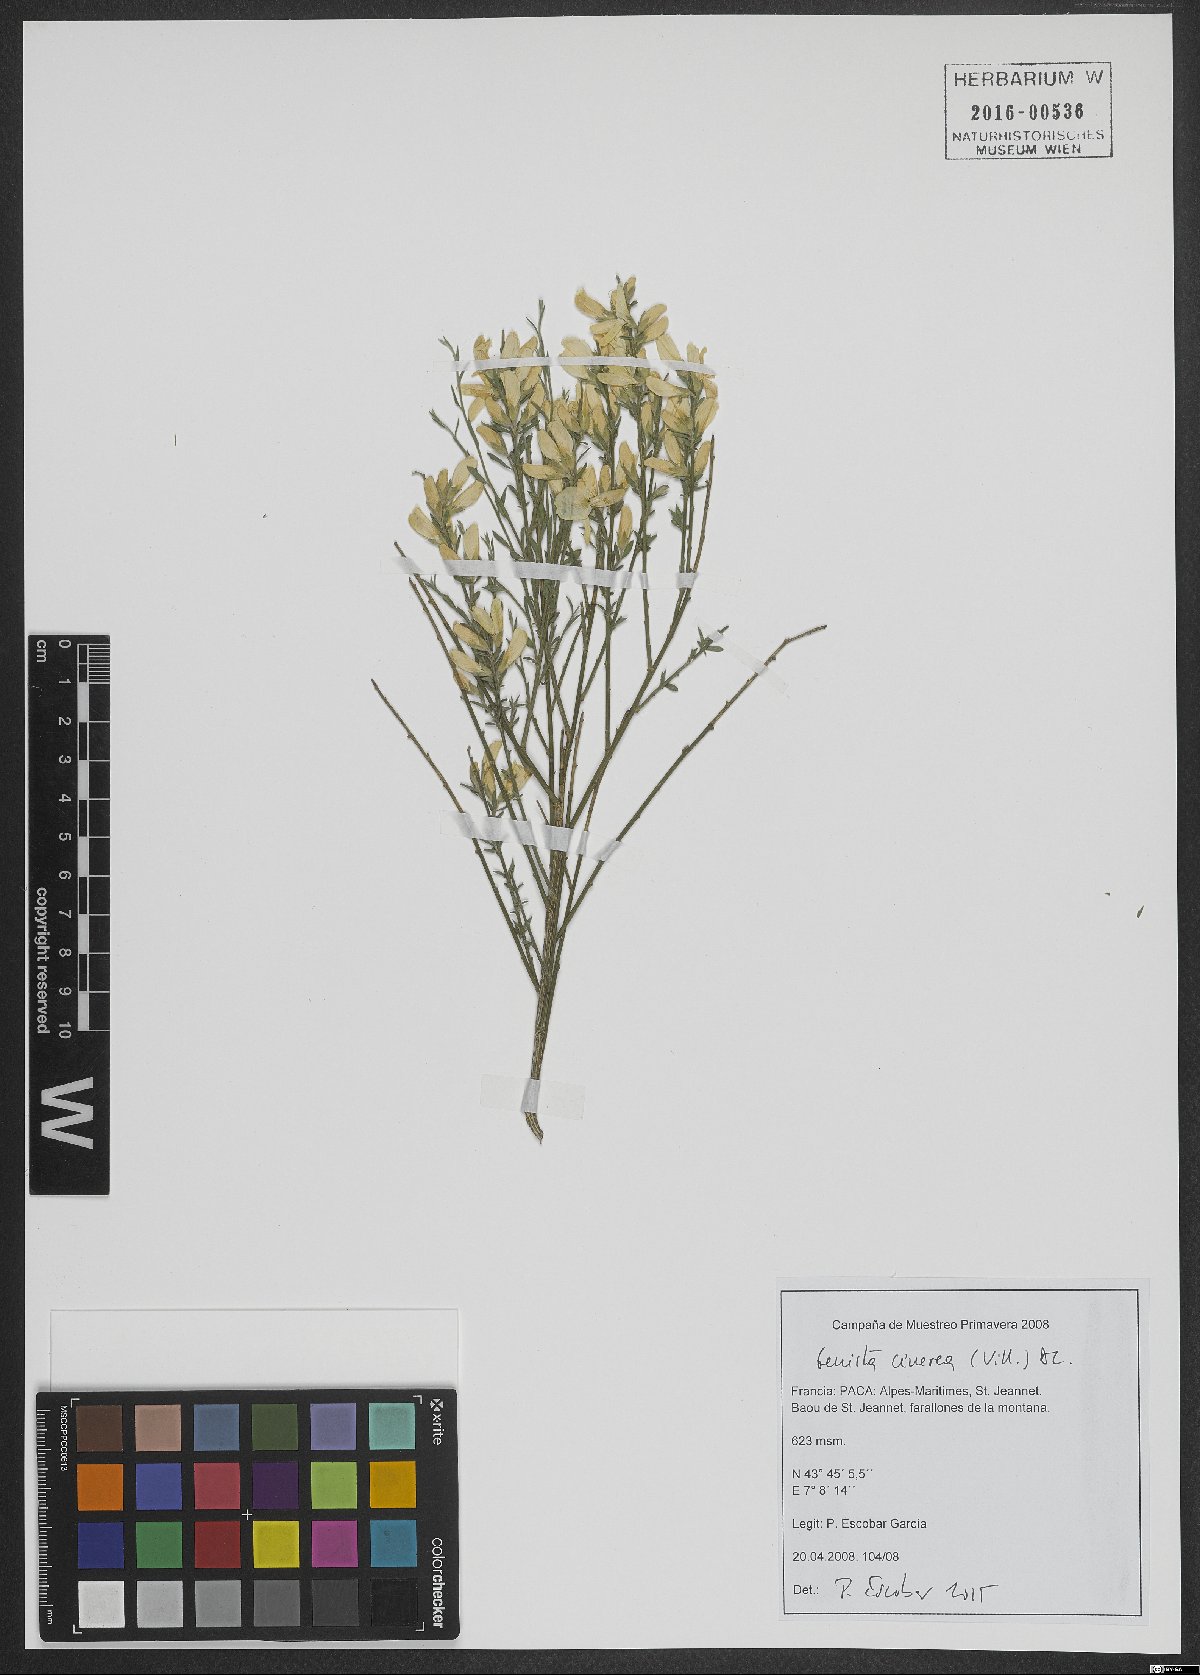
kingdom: Plantae
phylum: Tracheophyta
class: Magnoliopsida
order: Fabales
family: Fabaceae
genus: Genista
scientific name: Genista cinerea
